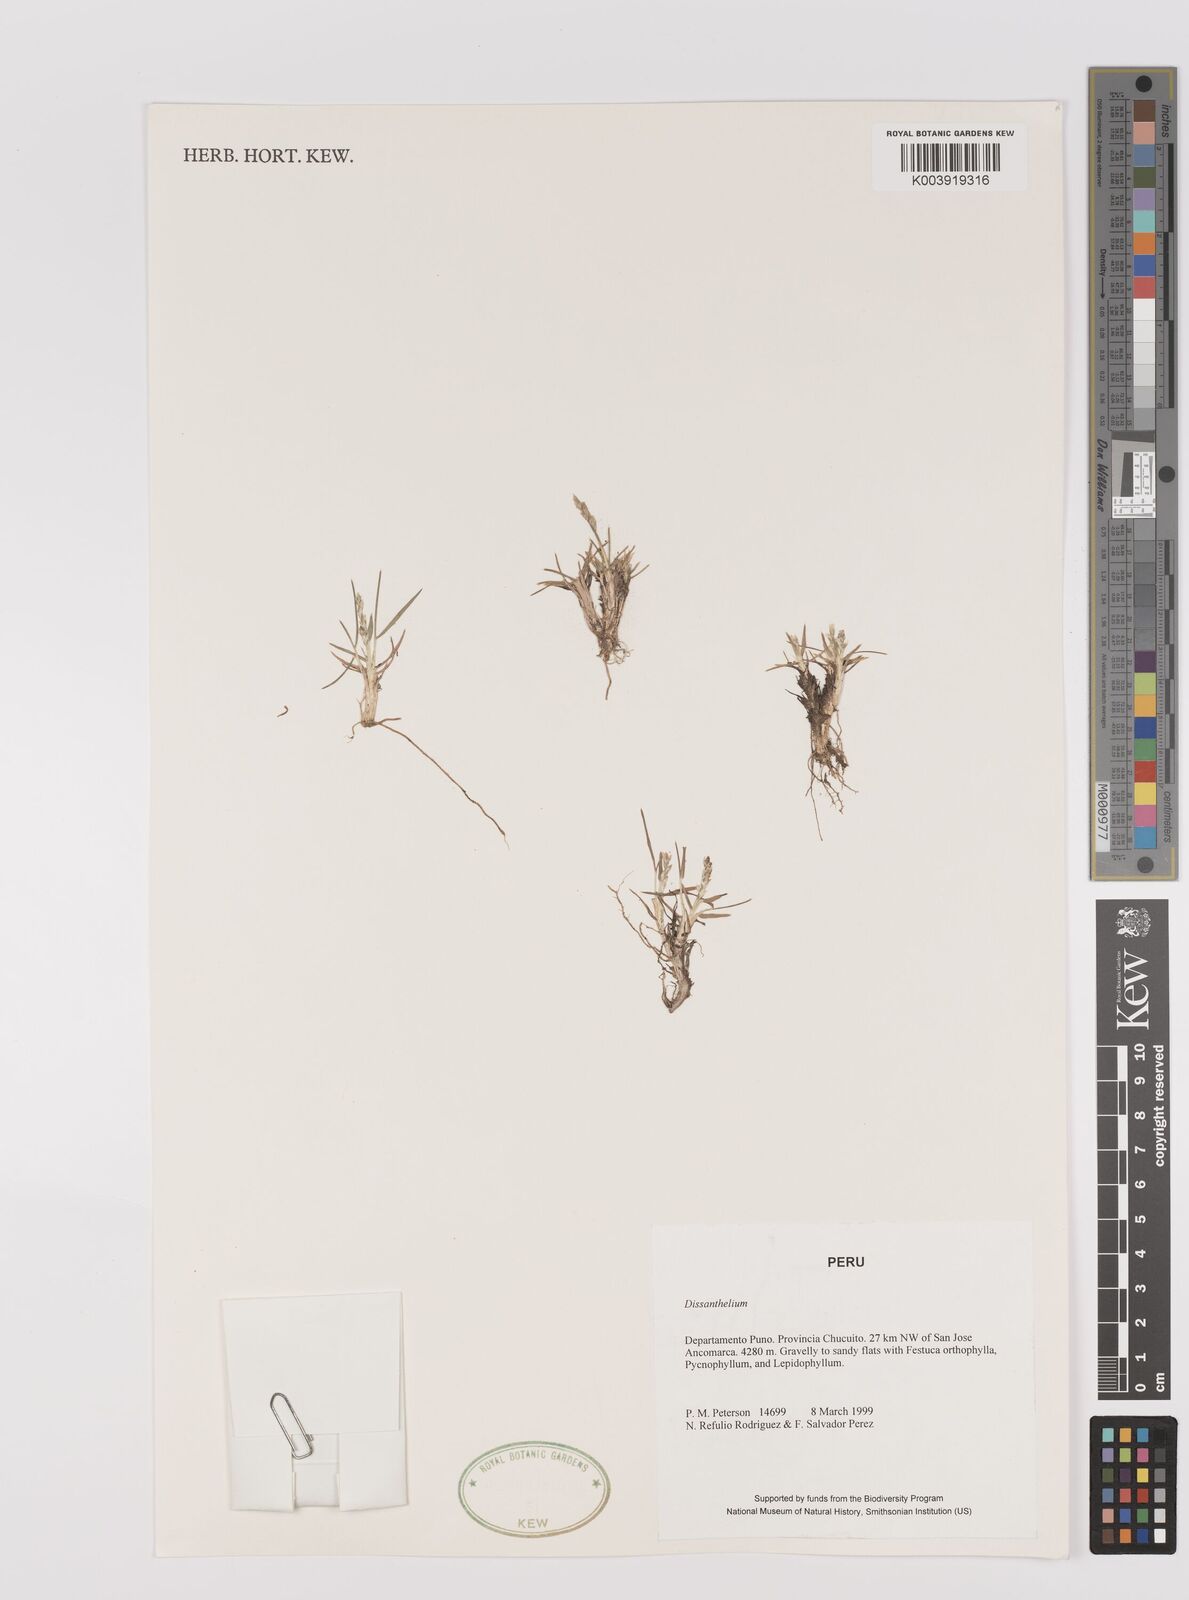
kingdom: Plantae
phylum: Tracheophyta
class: Liliopsida
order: Poales
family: Poaceae
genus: Poa
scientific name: Poa
